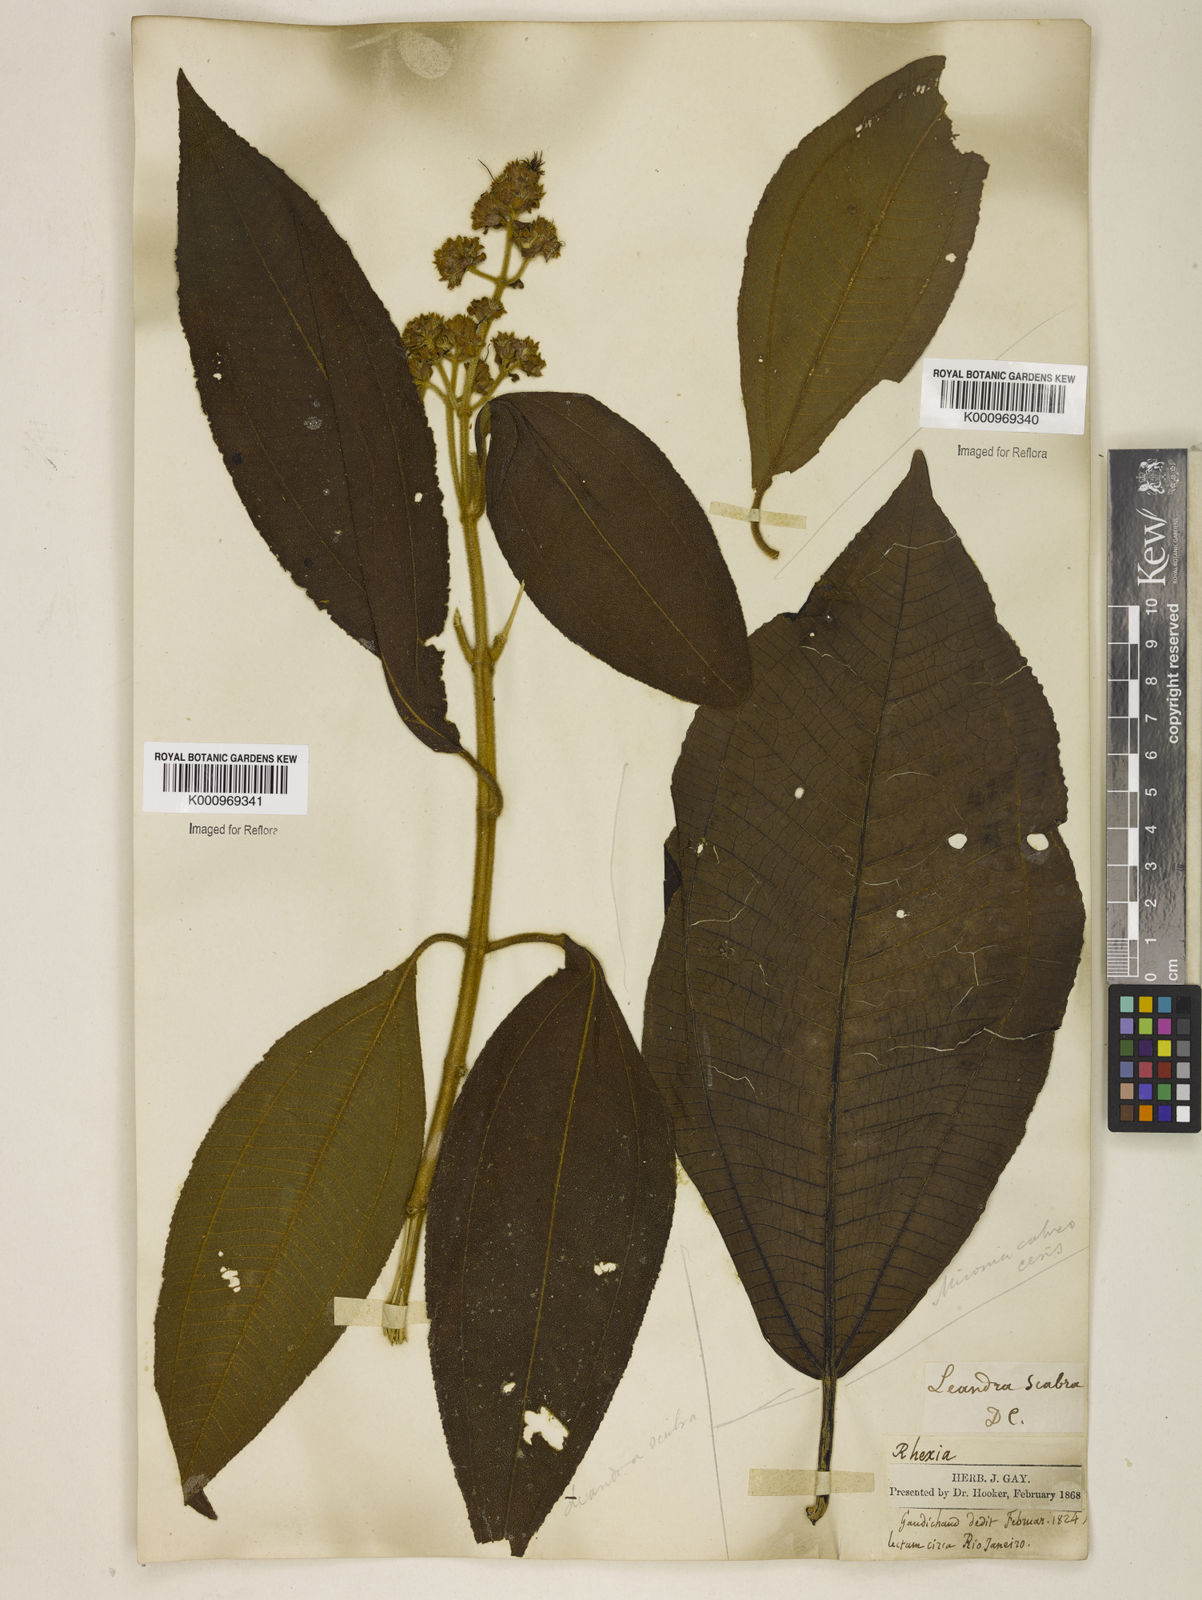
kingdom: Plantae
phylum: Tracheophyta
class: Magnoliopsida
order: Myrtales
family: Melastomataceae
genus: Miconia
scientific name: Miconia melastomoides
